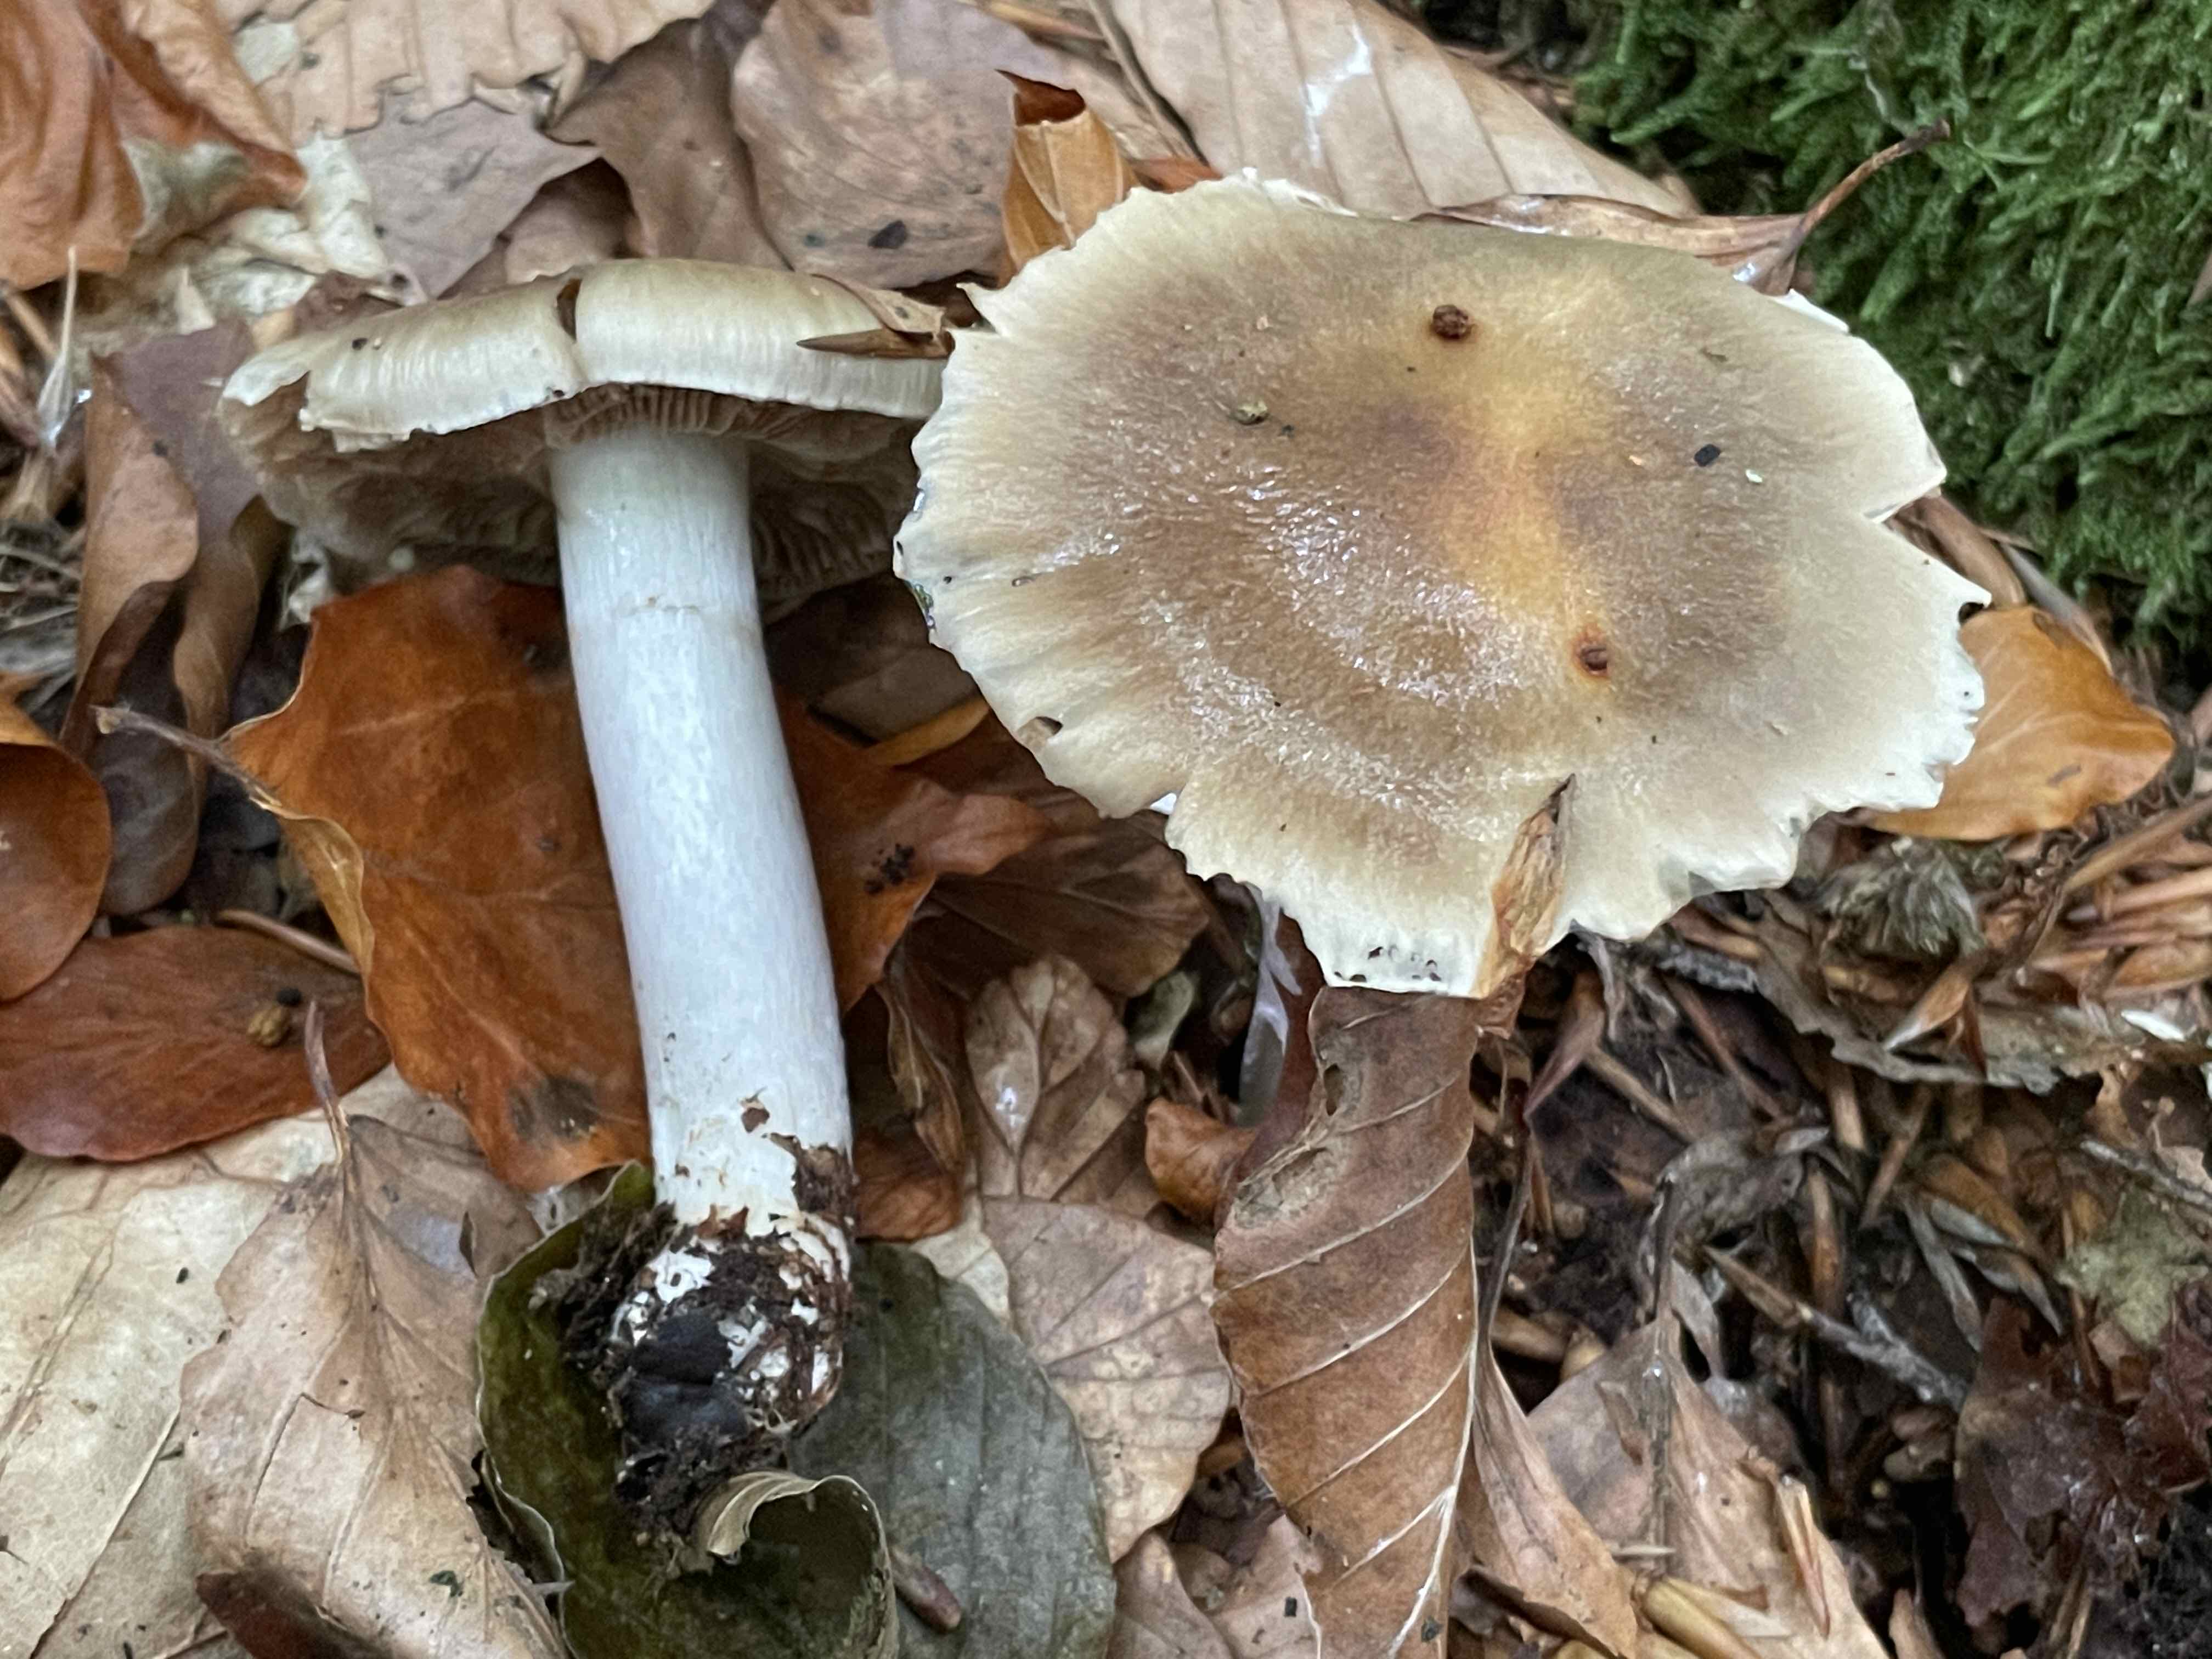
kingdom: Fungi
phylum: Basidiomycota
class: Agaricomycetes
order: Agaricales
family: Cortinariaceae
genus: Cortinarius
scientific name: Cortinarius elatior
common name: høj slørhat
